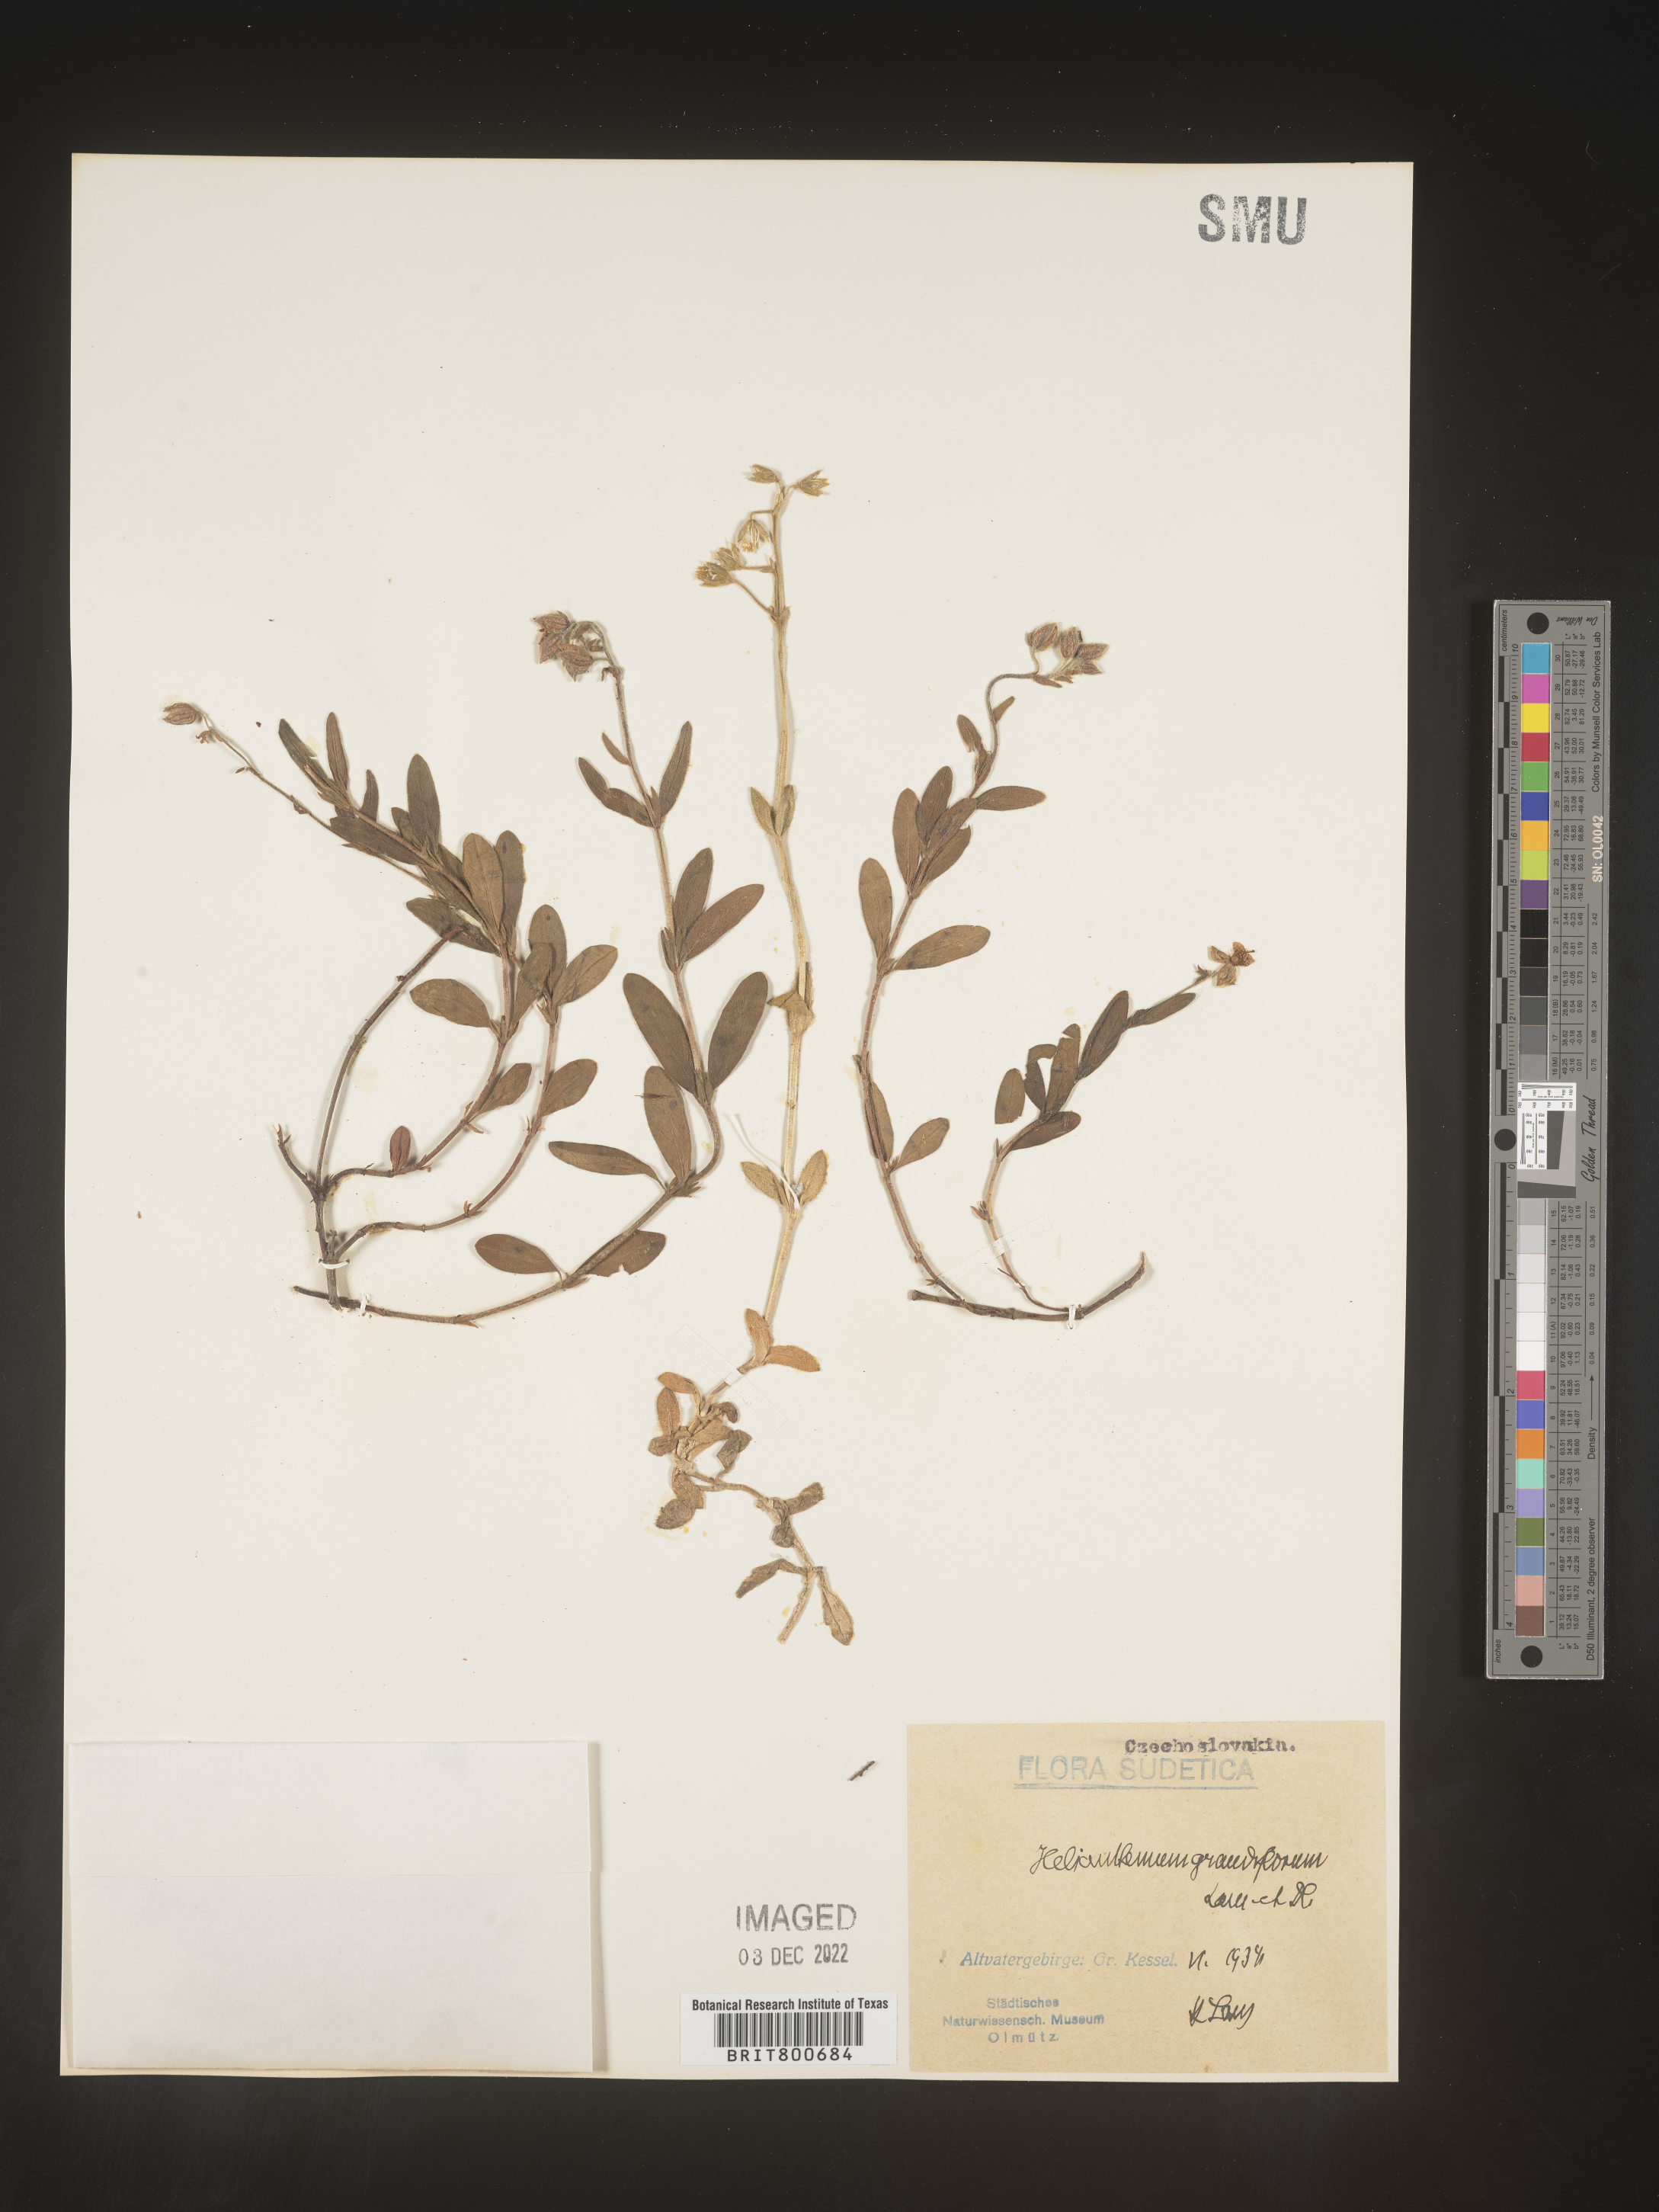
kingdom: Plantae
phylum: Tracheophyta
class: Magnoliopsida
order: Malvales
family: Cistaceae
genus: Helianthemum
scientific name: Helianthemum
